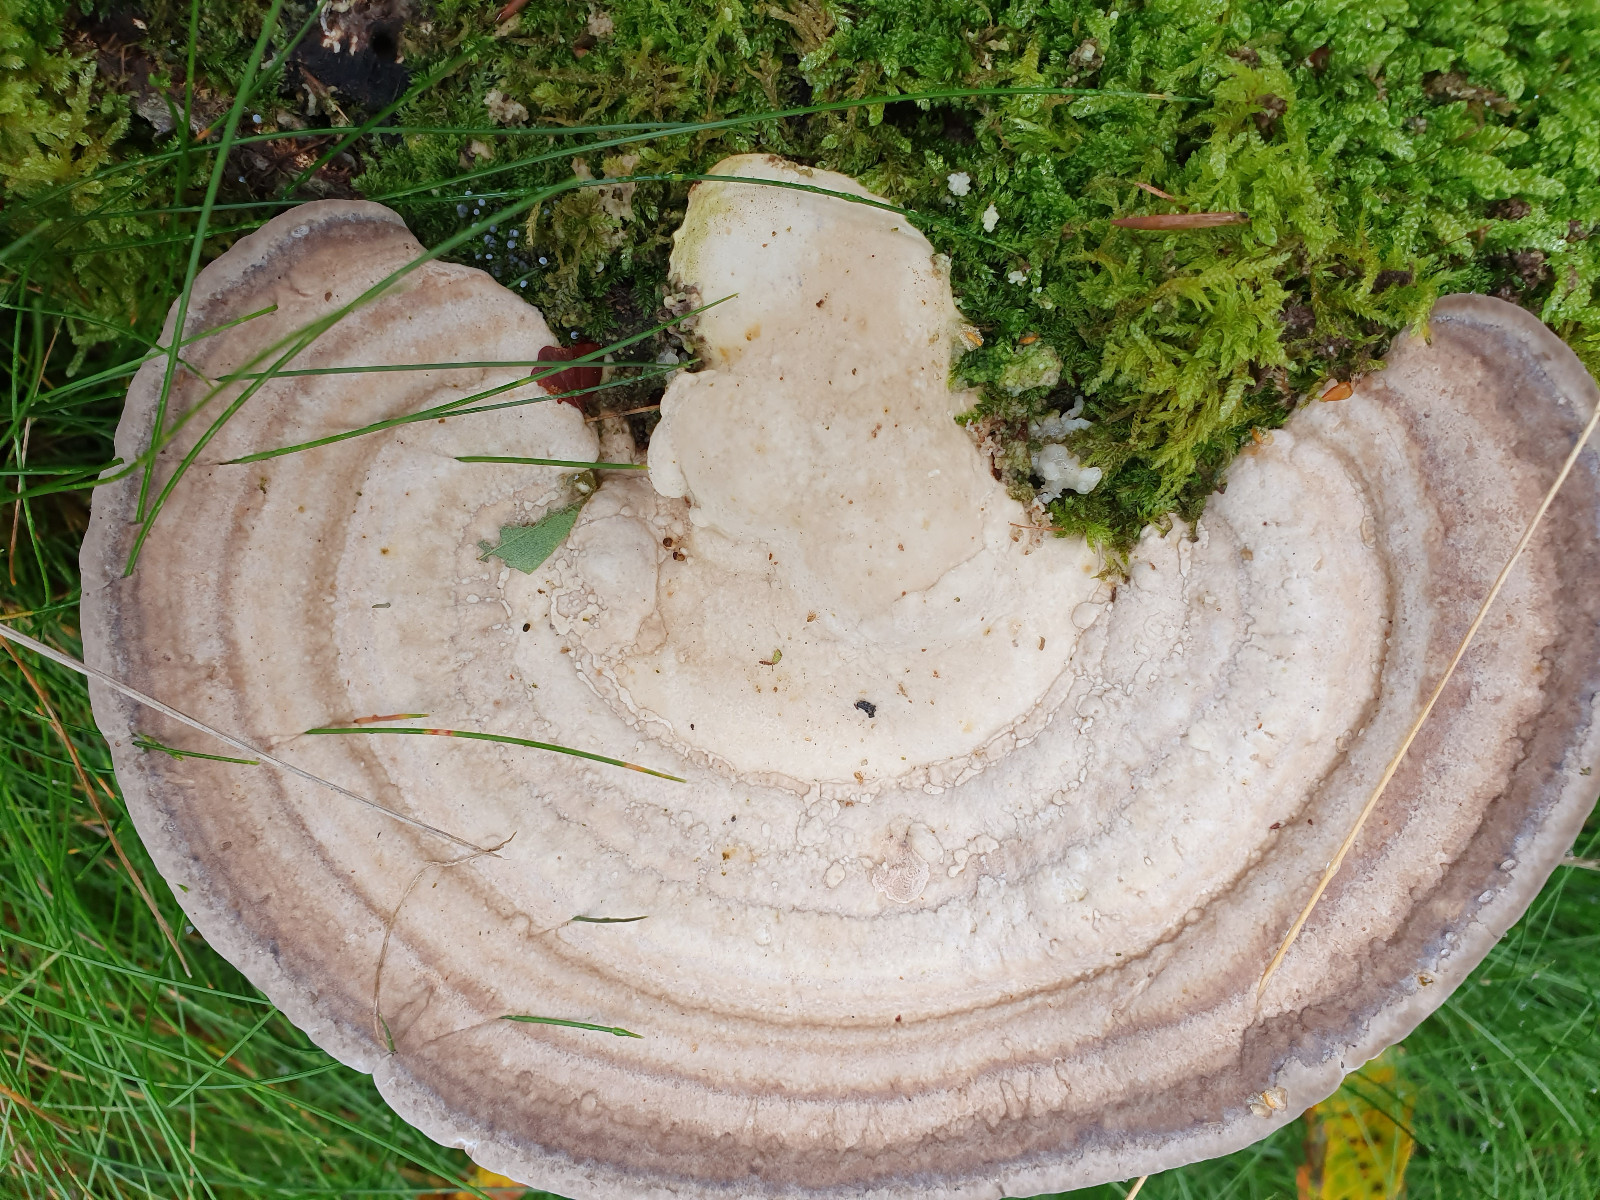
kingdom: Fungi
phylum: Basidiomycota
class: Agaricomycetes
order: Polyporales
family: Polyporaceae
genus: Lenzites
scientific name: Lenzites betulinus
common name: birke-læderporesvamp
